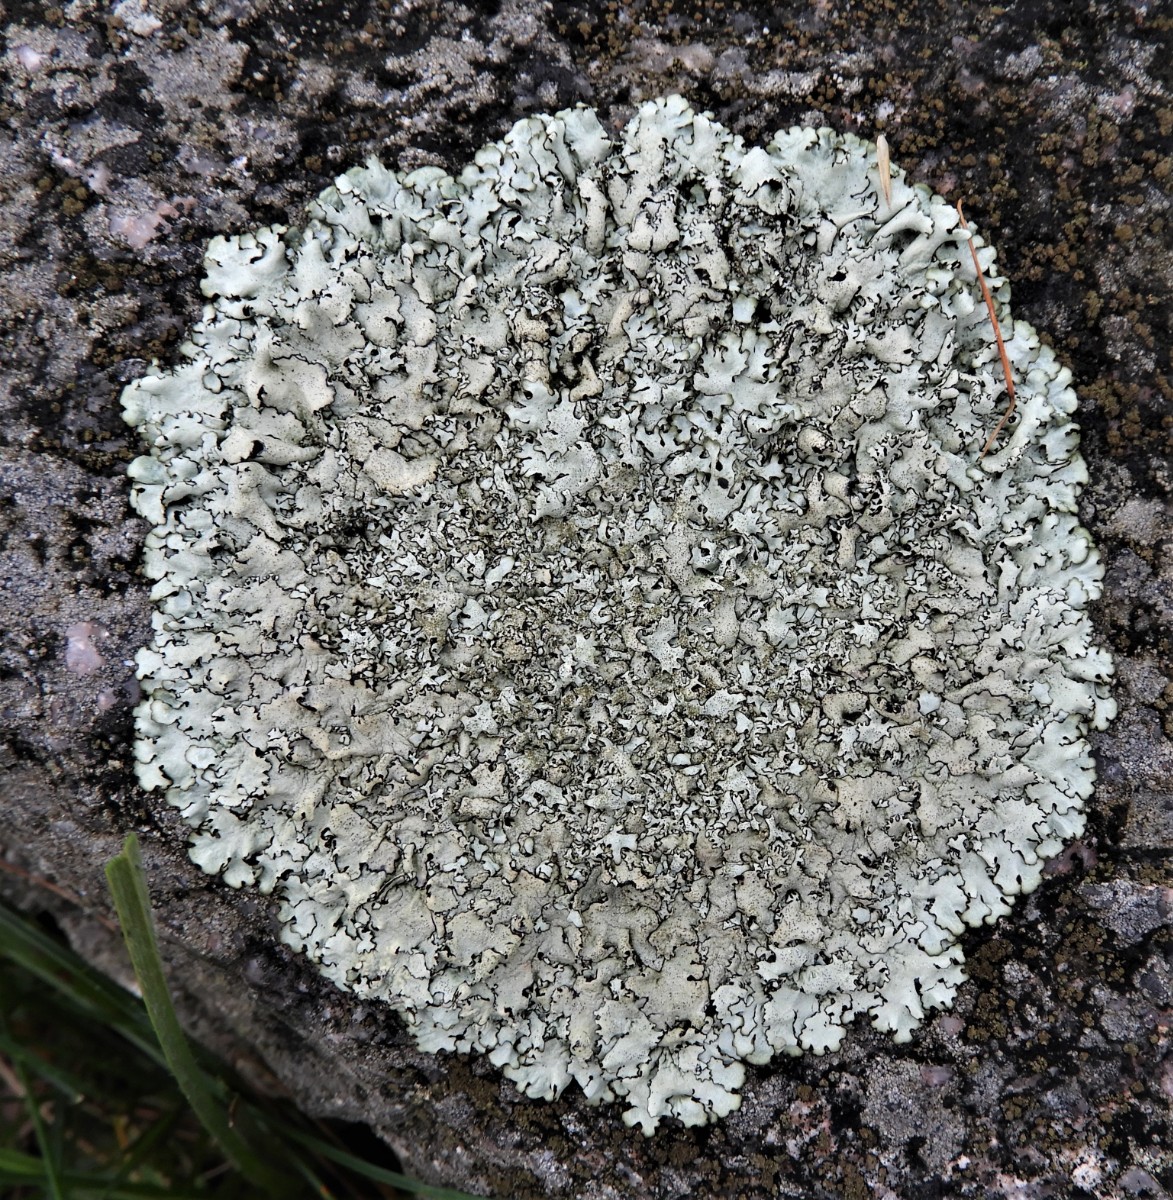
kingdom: Fungi
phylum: Ascomycota
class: Lecanoromycetes
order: Lecanorales
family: Parmeliaceae
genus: Xanthoparmelia
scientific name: Xanthoparmelia stenophylla
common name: Shingled rock shield
